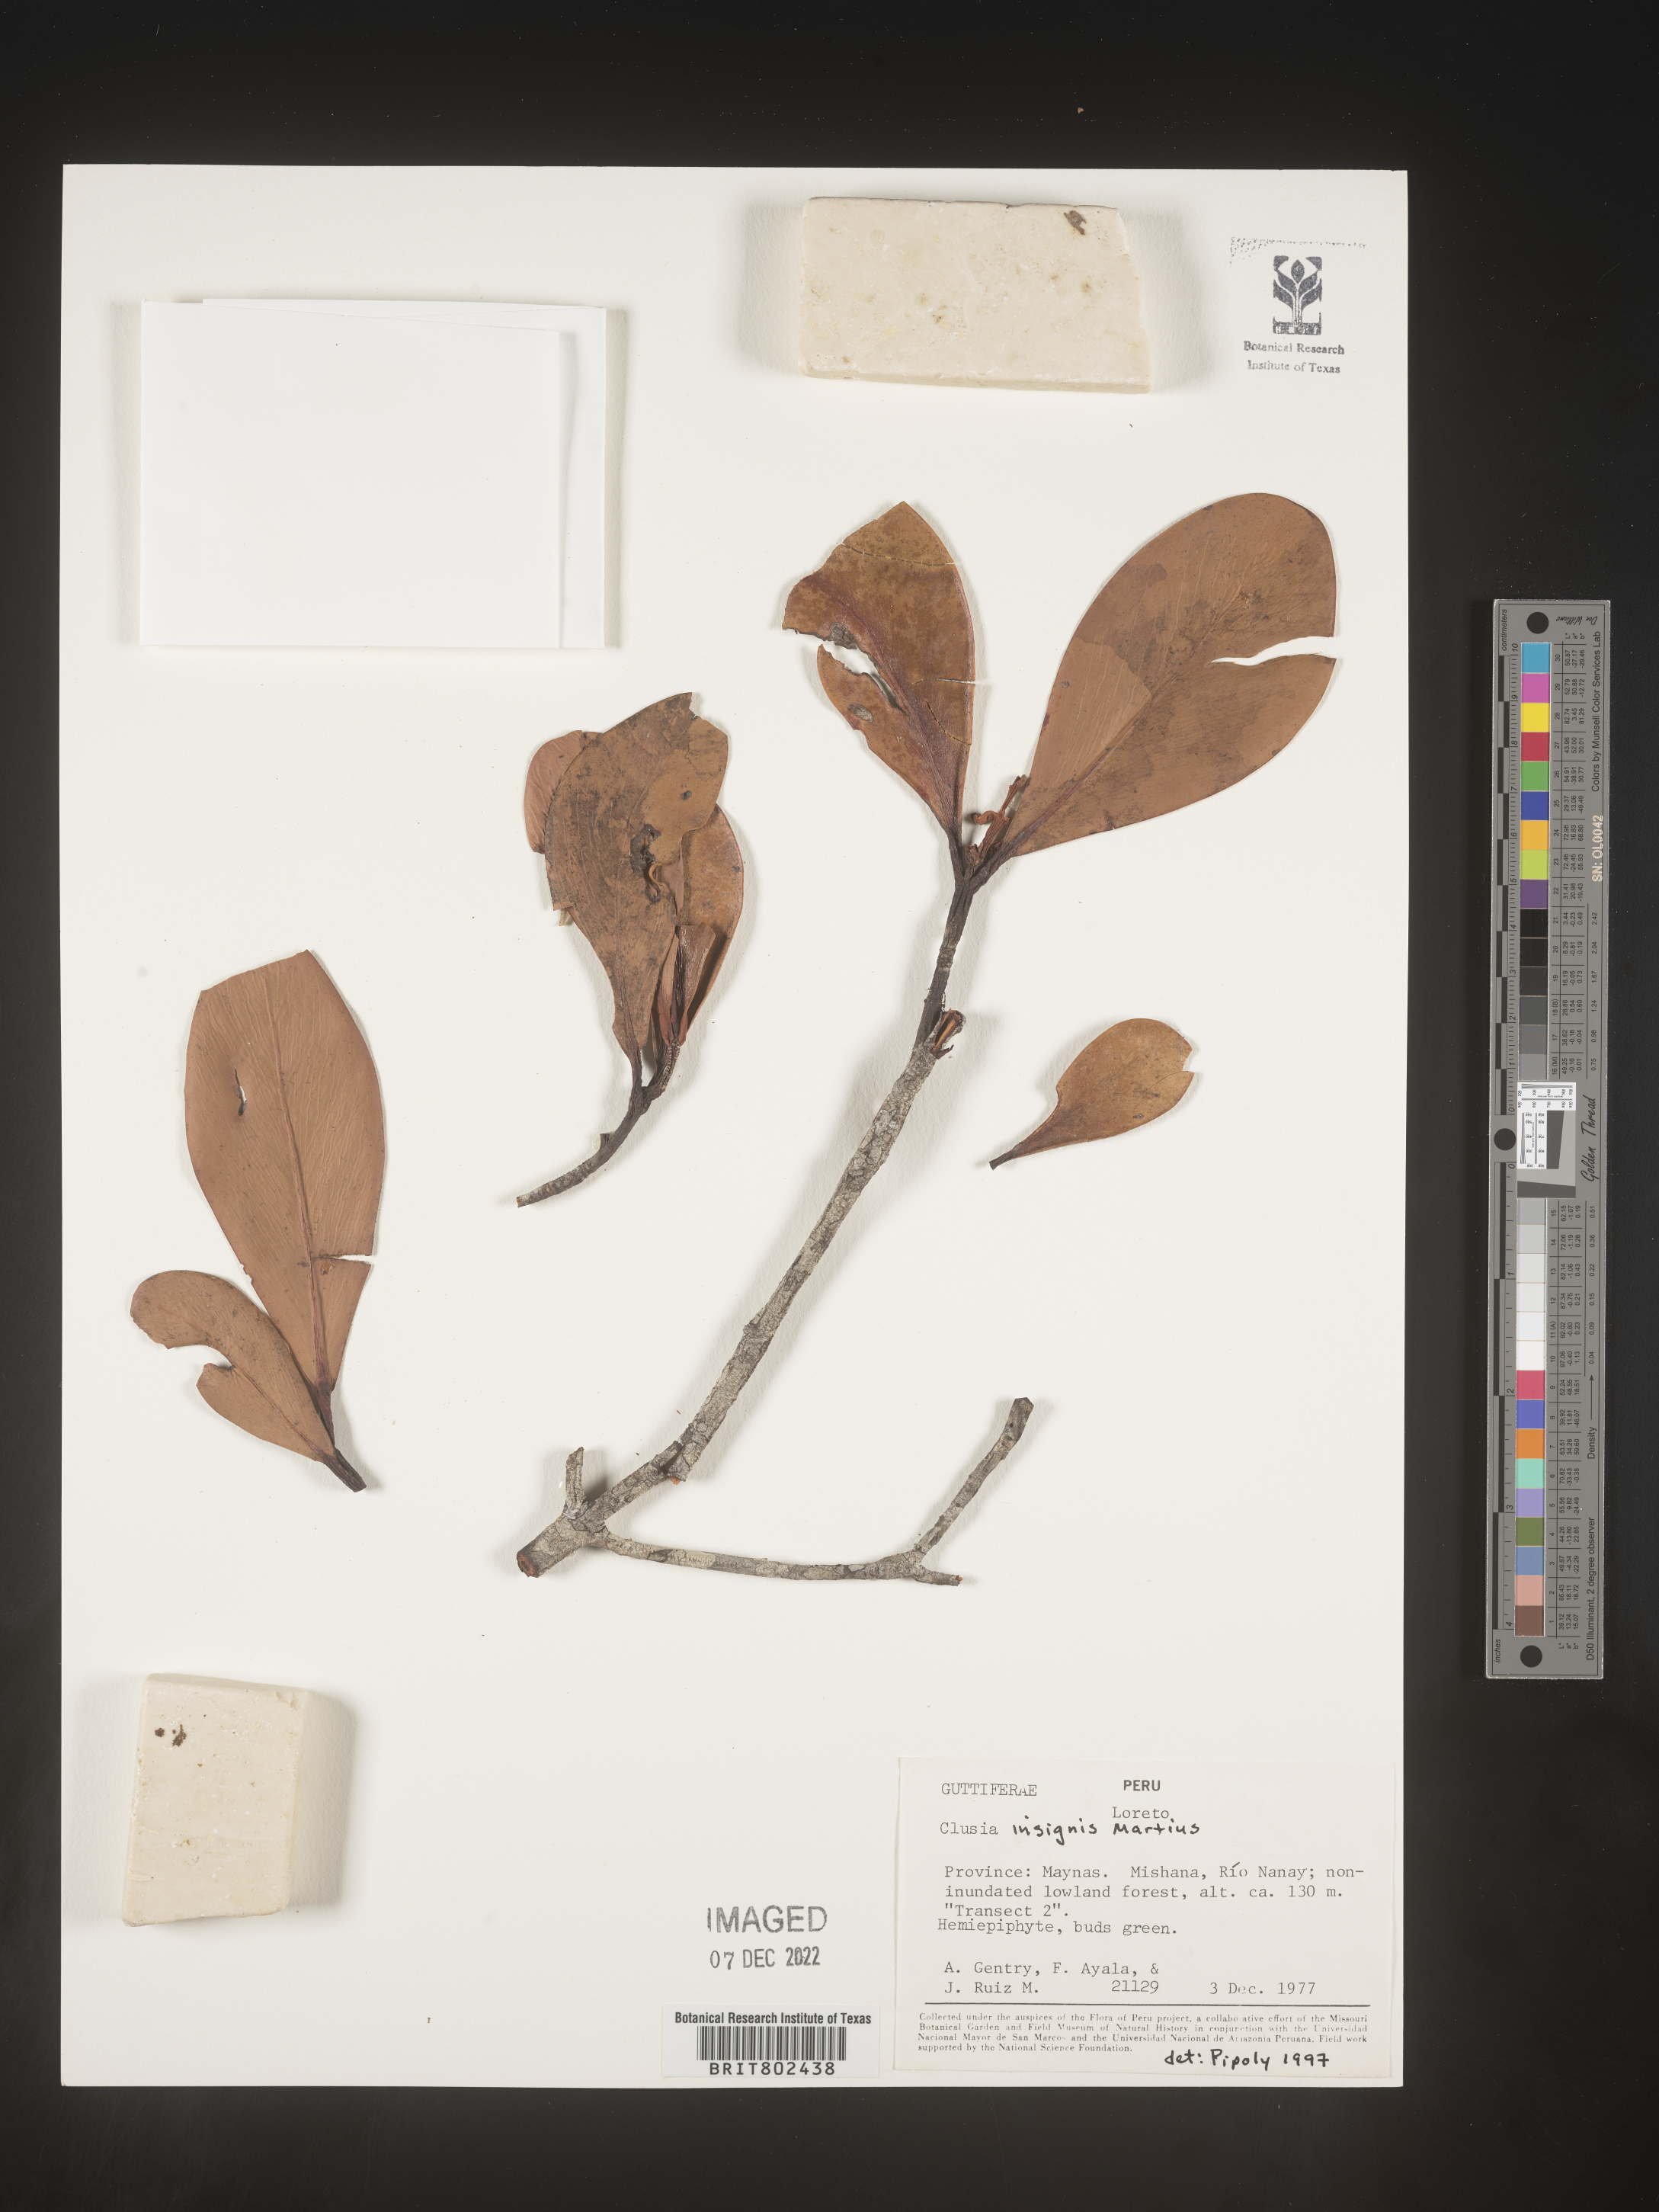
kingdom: Plantae
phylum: Tracheophyta
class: Magnoliopsida
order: Malpighiales
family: Clusiaceae
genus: Clusia
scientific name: Clusia insignis
